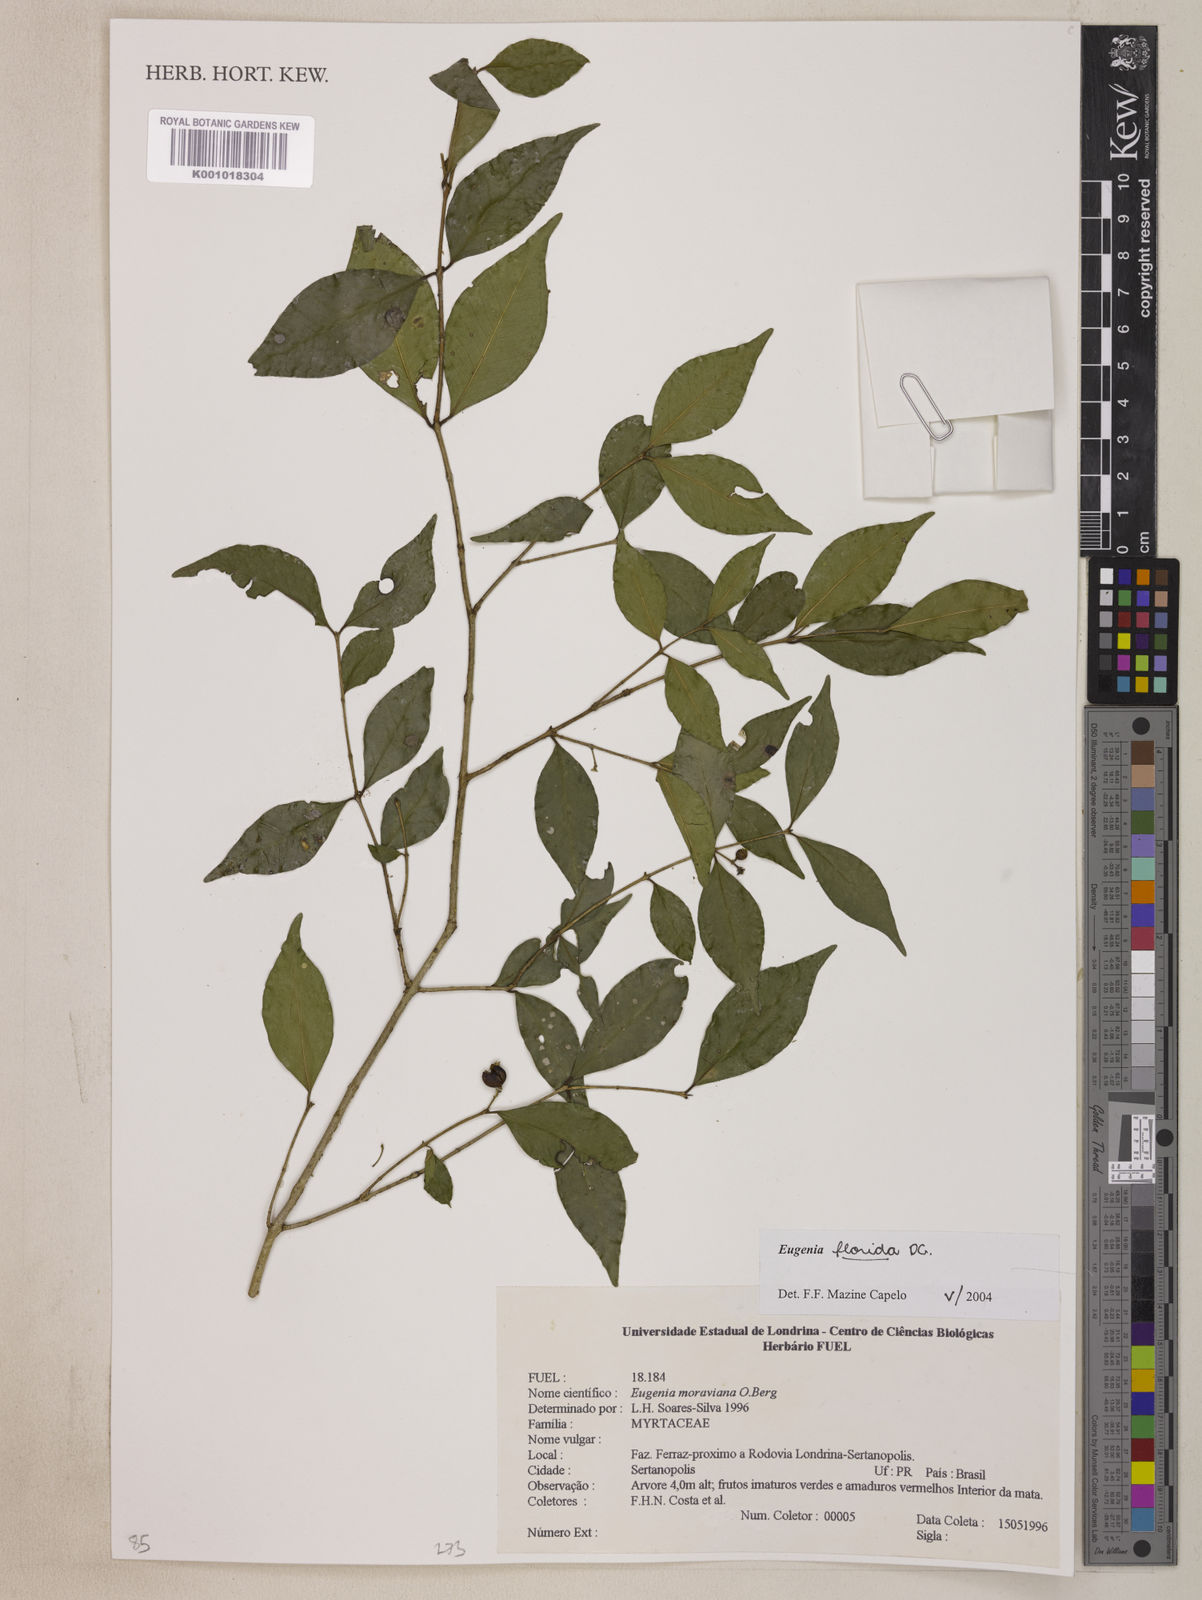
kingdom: Plantae
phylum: Tracheophyta
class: Magnoliopsida
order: Myrtales
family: Myrtaceae
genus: Eugenia
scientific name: Eugenia florida
